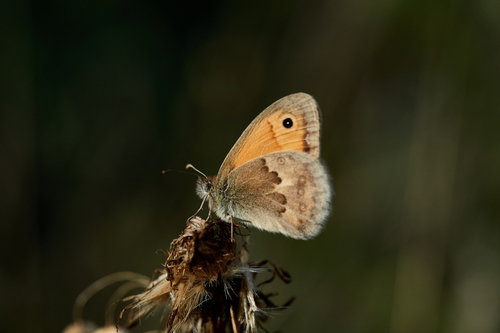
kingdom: Animalia
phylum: Arthropoda
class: Insecta
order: Lepidoptera
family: Nymphalidae
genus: Coenonympha
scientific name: Coenonympha pamphilus
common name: Small heath
